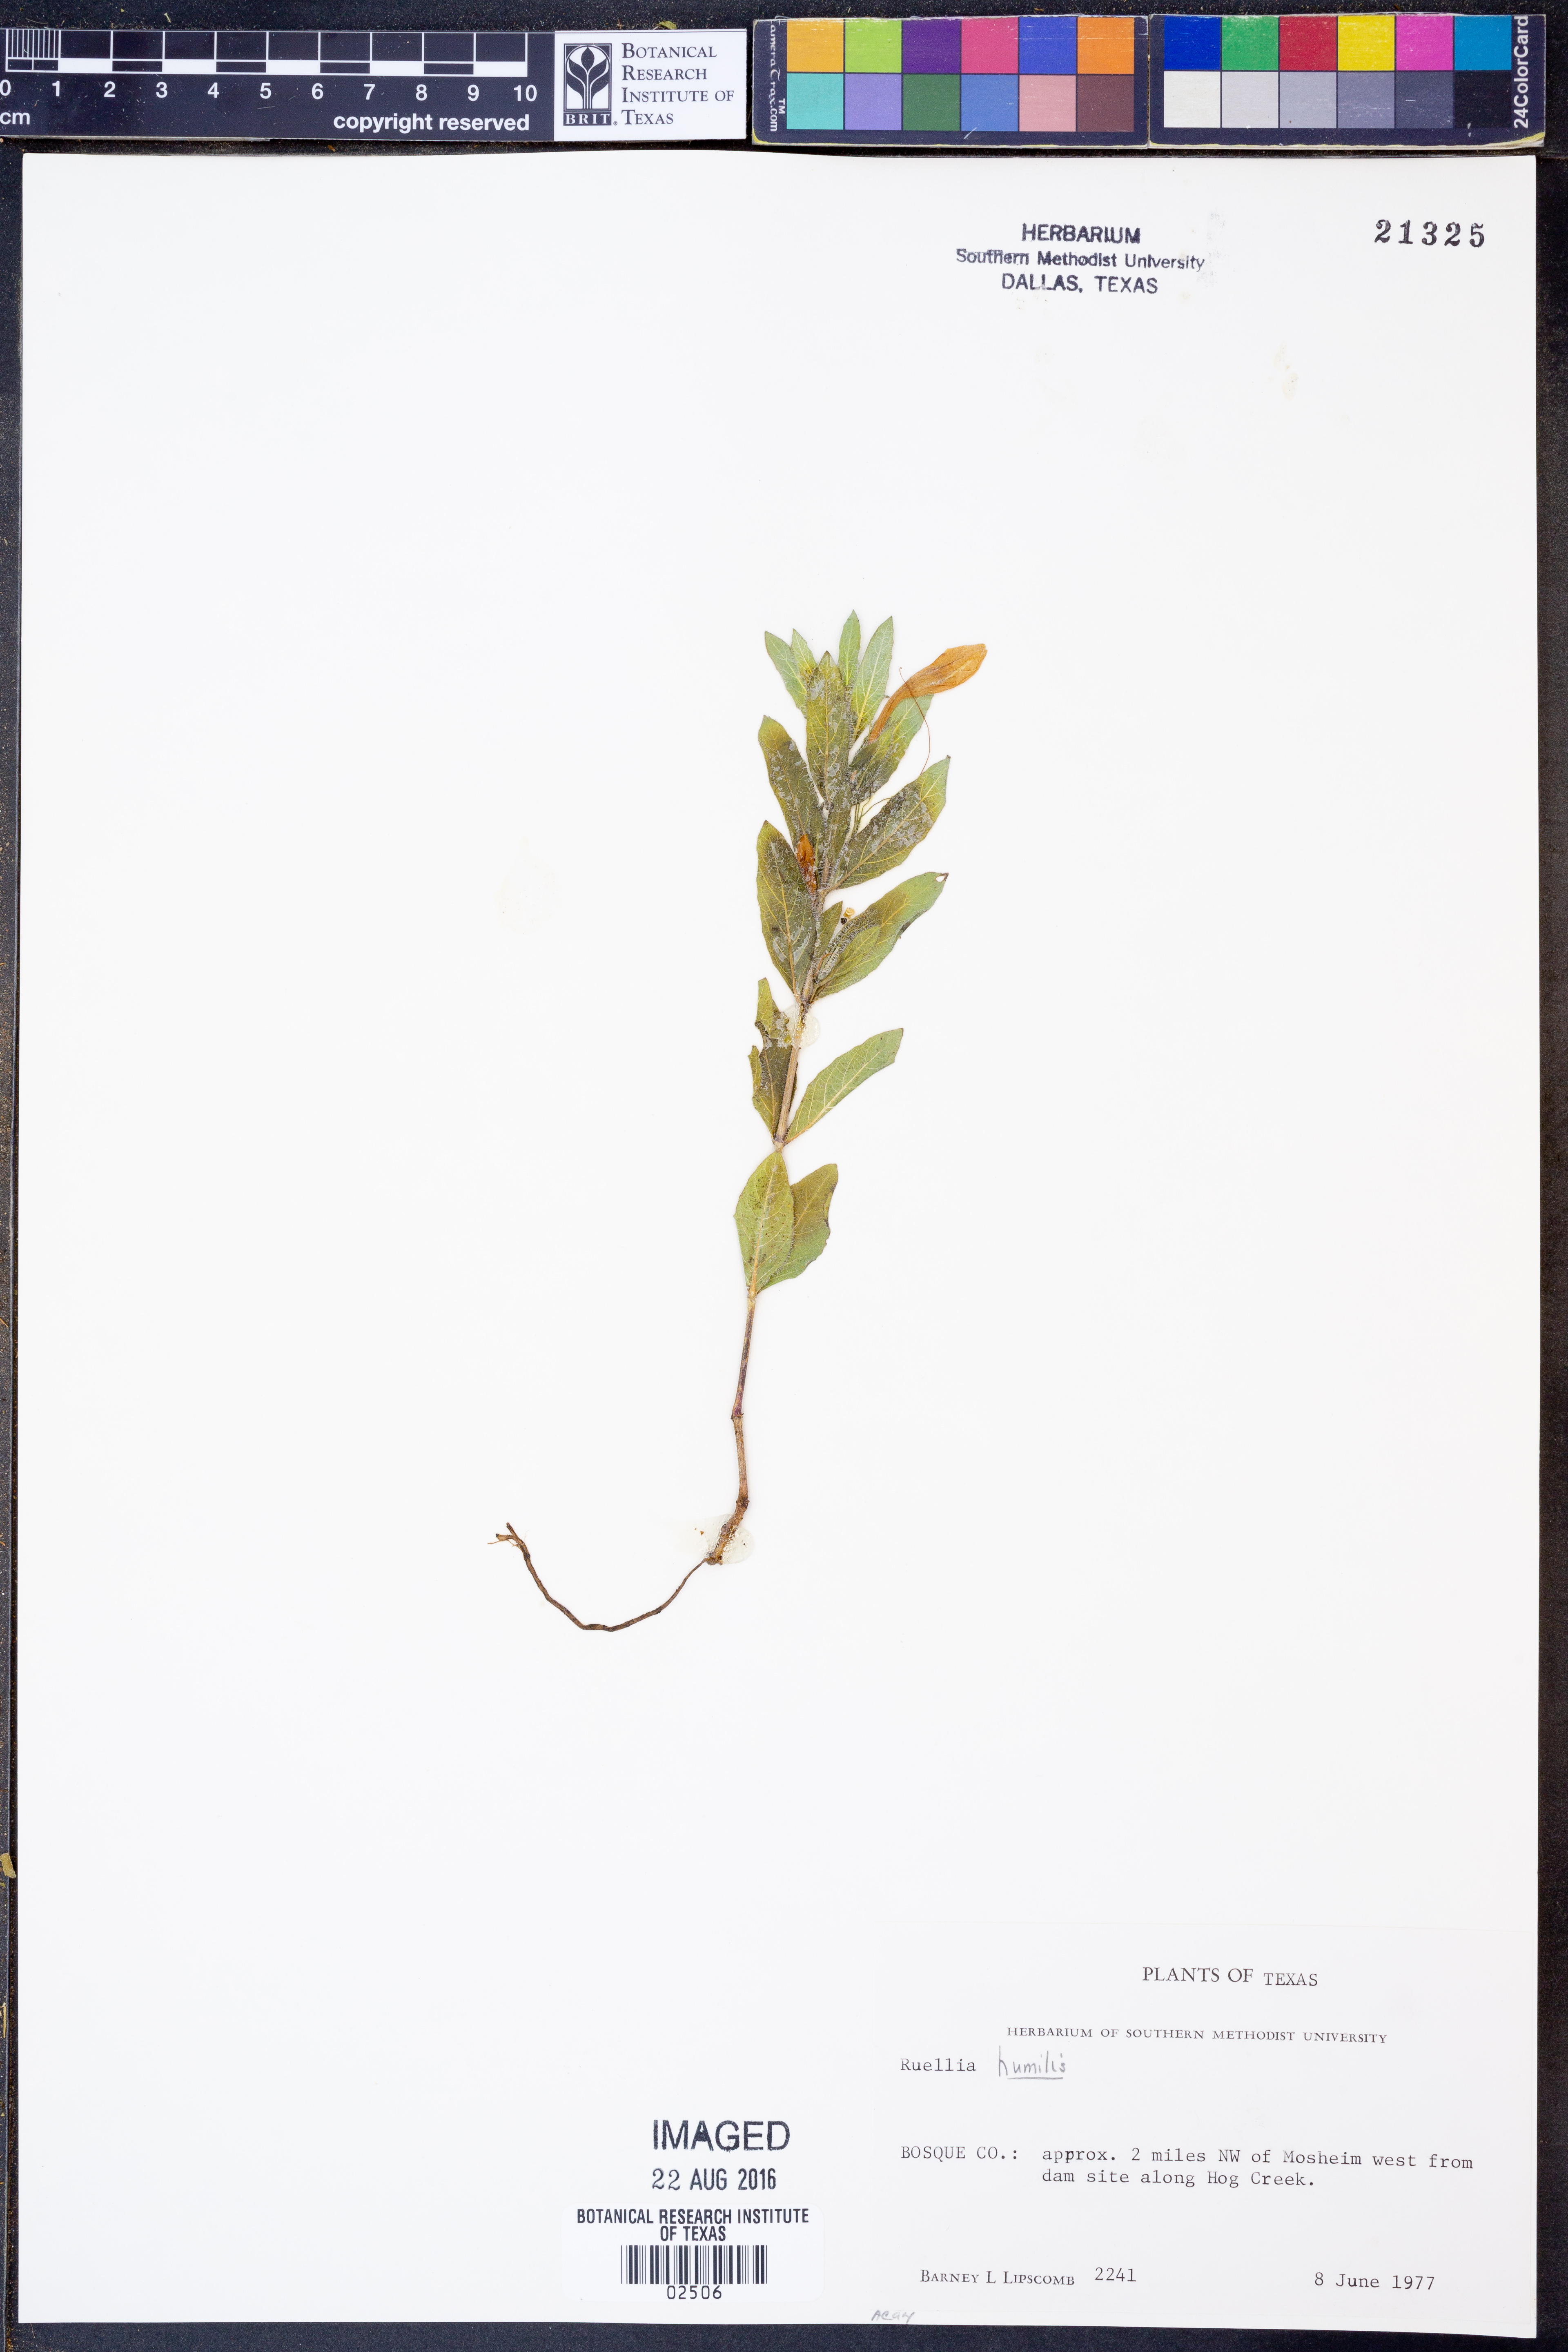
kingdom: Plantae
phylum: Tracheophyta
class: Magnoliopsida
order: Lamiales
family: Acanthaceae
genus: Ruellia
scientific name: Ruellia humilis
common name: Fringe-leaf ruellia
